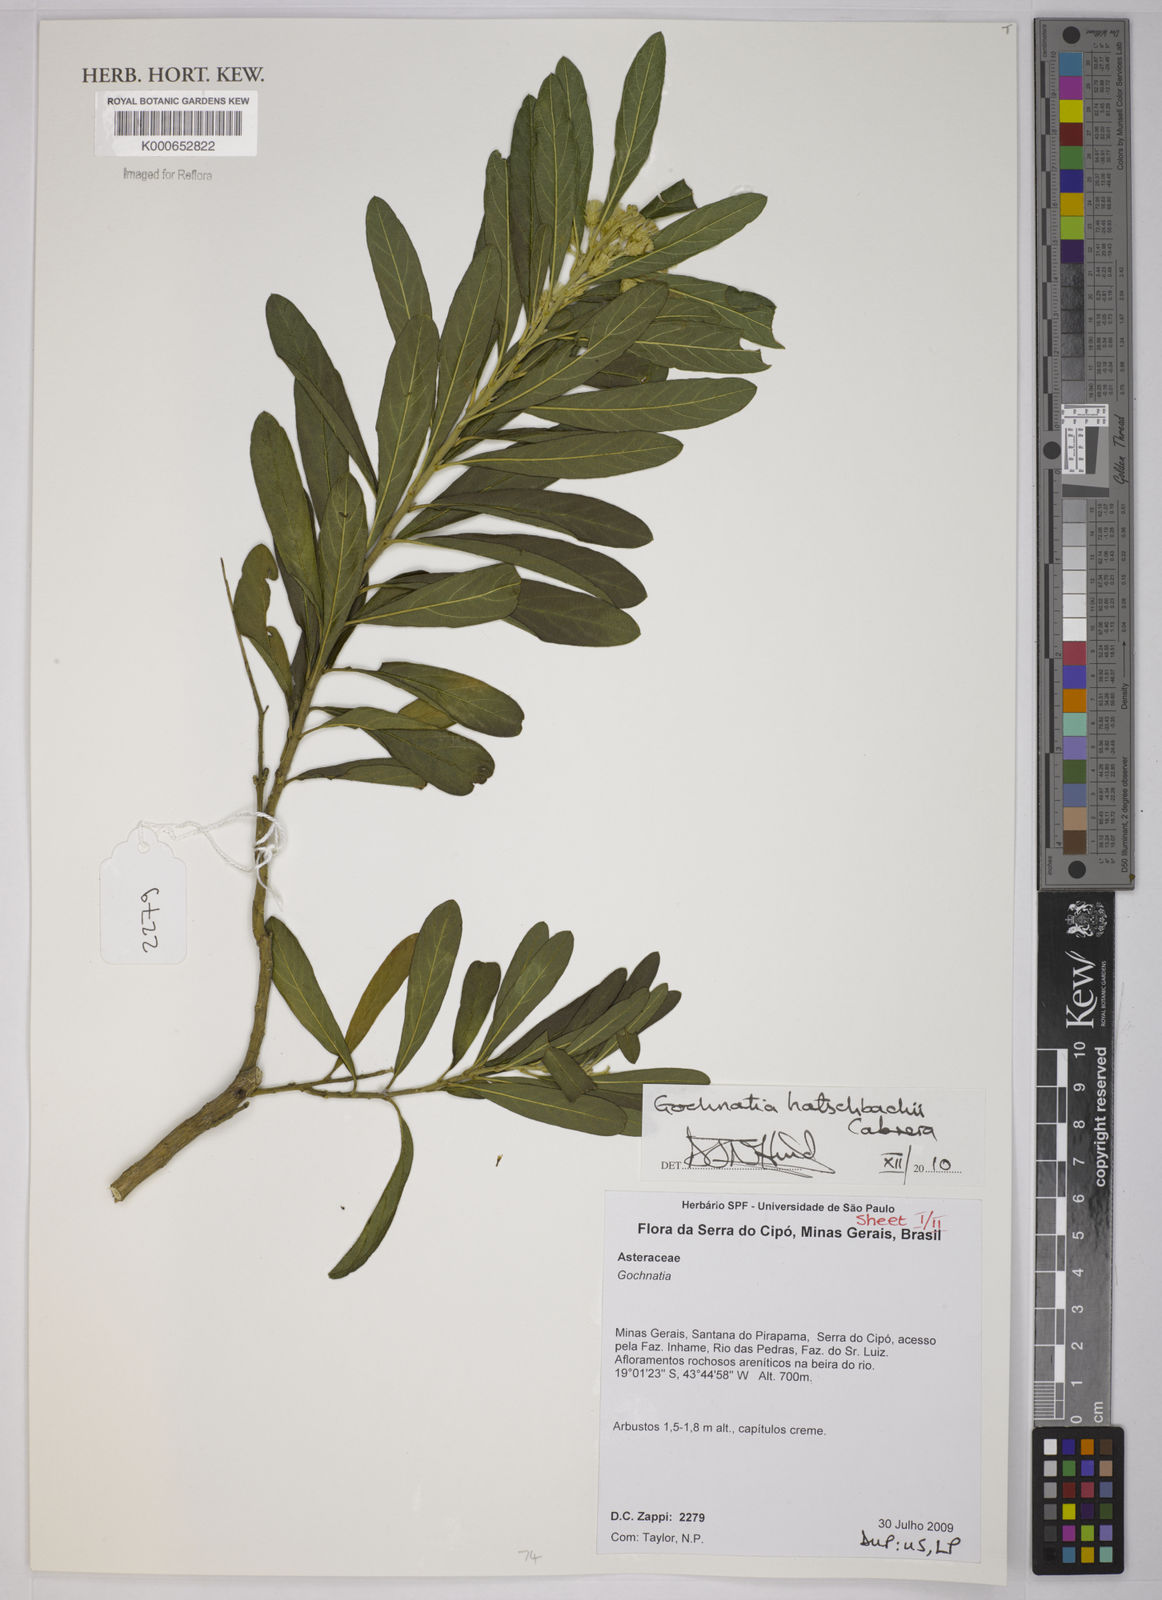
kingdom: Plantae
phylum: Tracheophyta
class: Magnoliopsida
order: Asterales
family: Asteraceae
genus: Moquiniastrum
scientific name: Moquiniastrum hatschbachii
